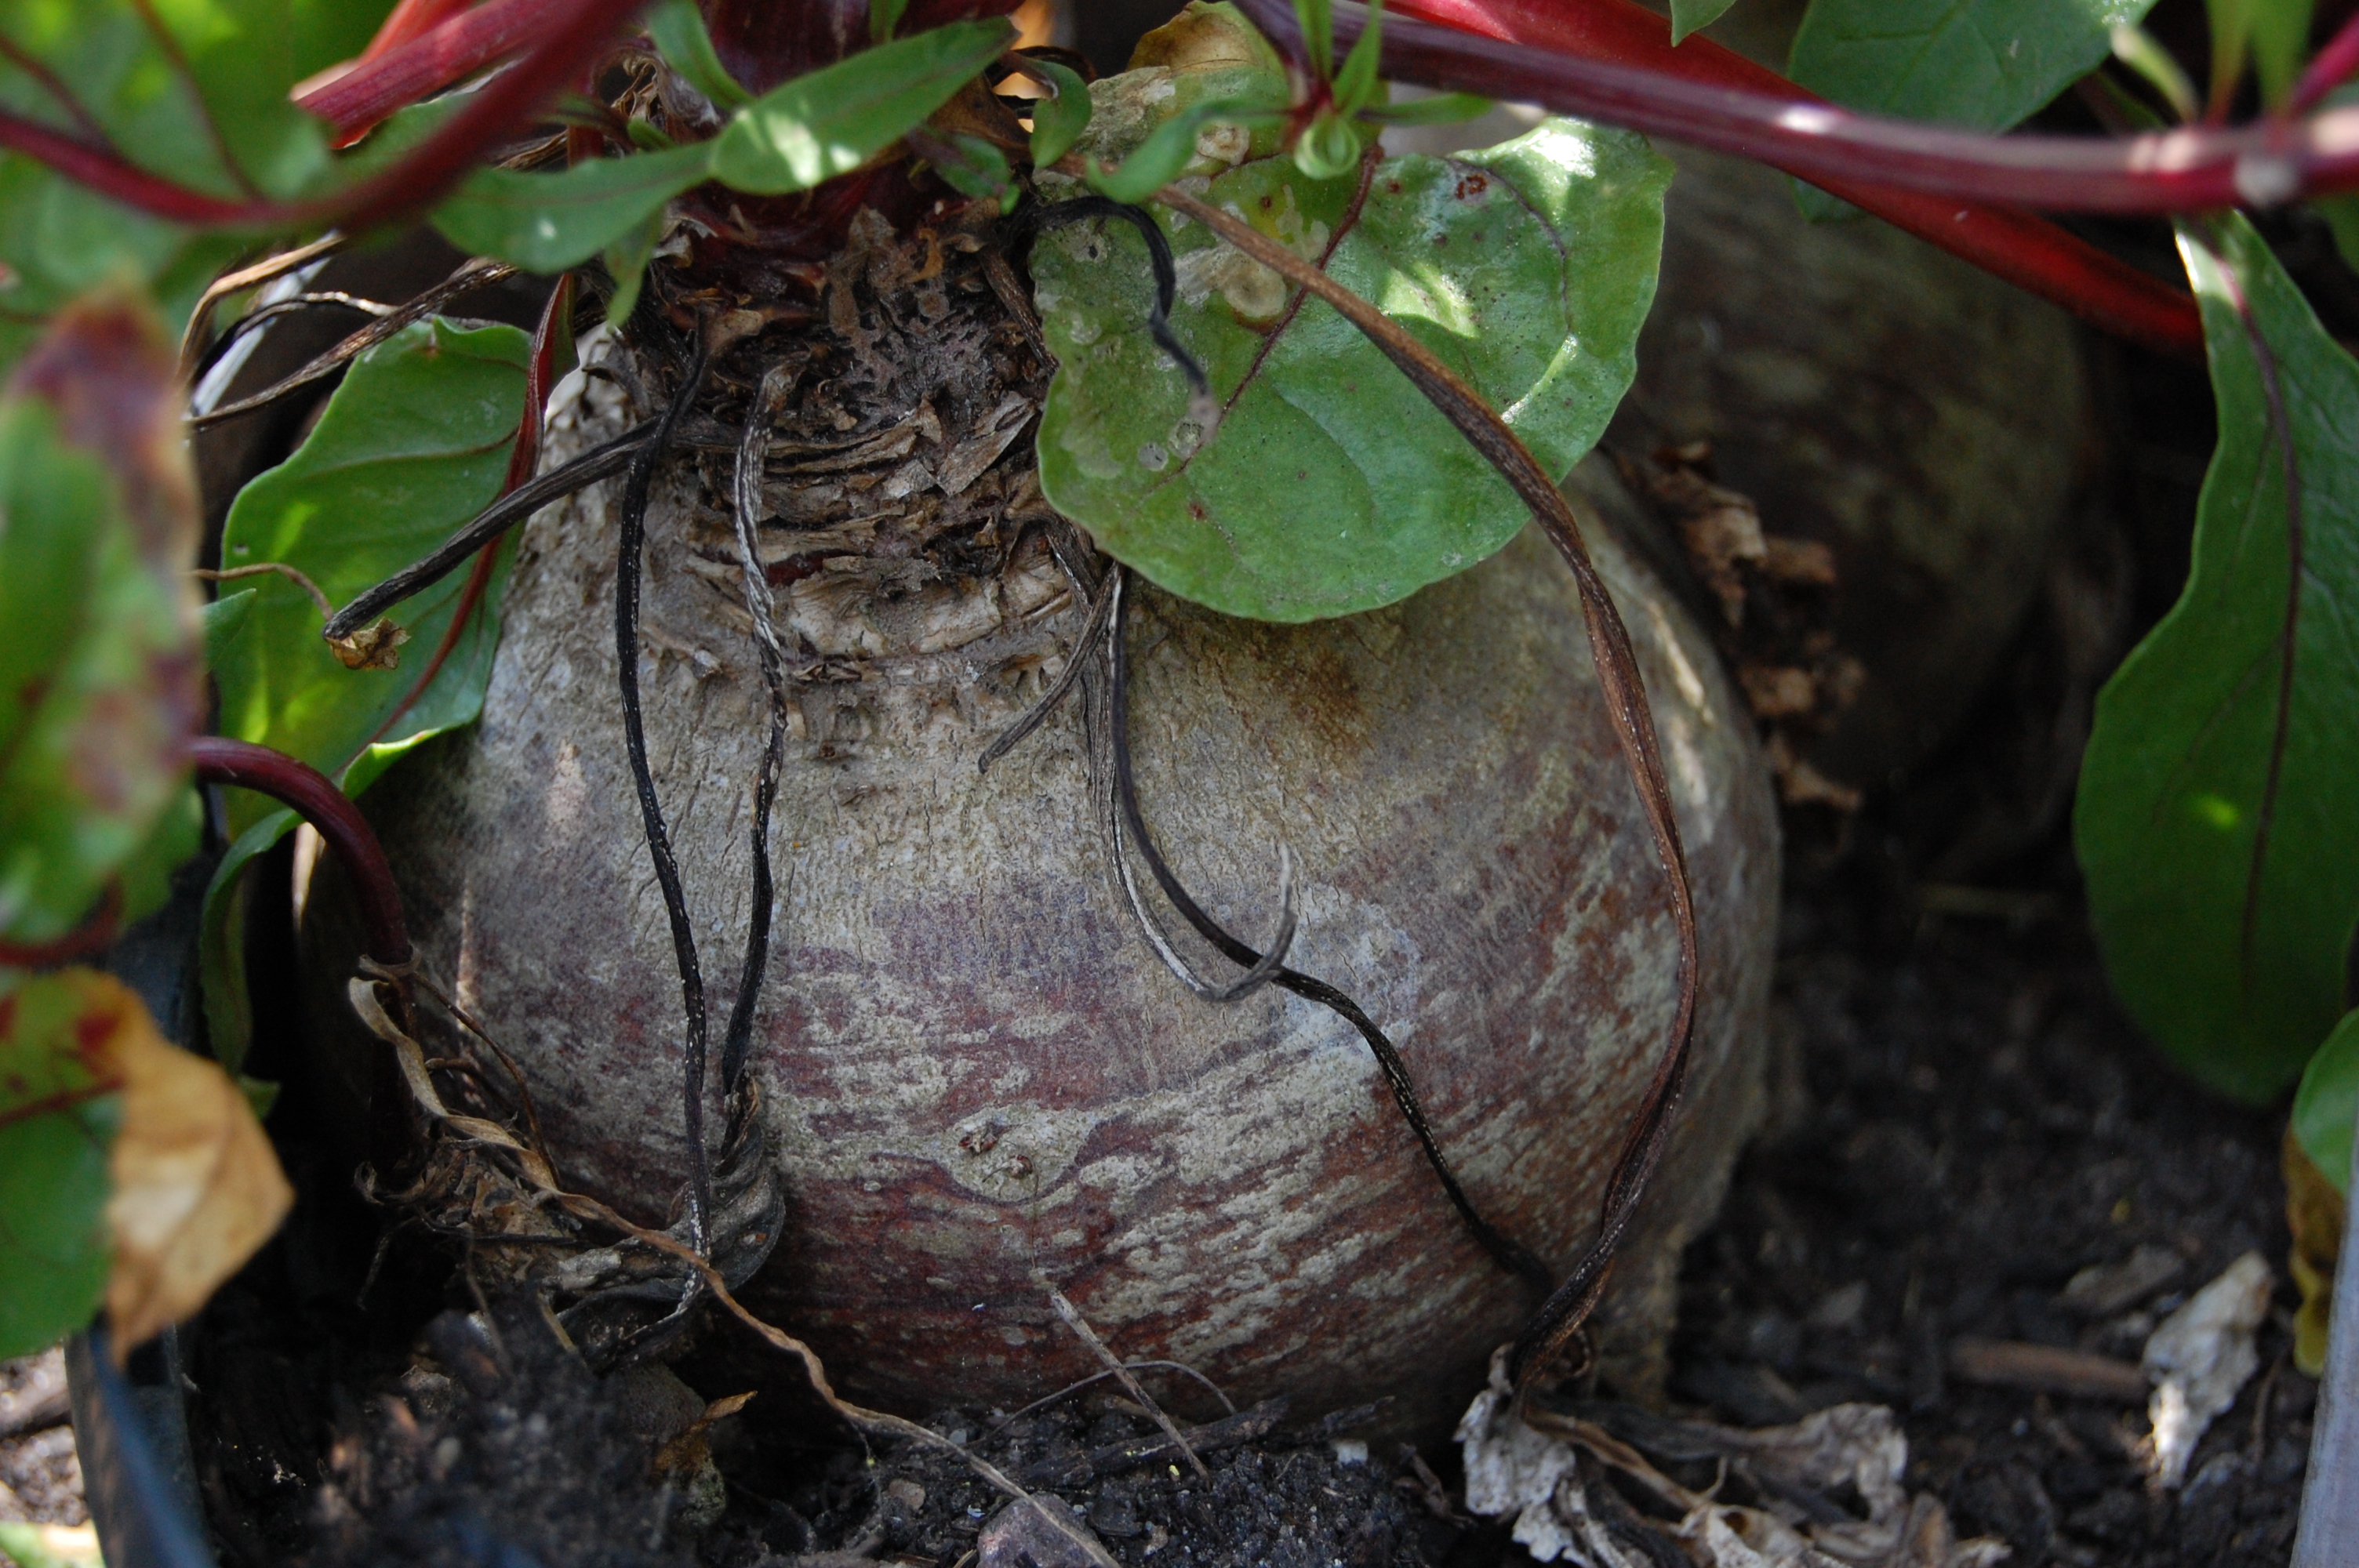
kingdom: Plantae
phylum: Tracheophyta
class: Magnoliopsida
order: Caryophyllales
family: Amaranthaceae
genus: Beta
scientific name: Beta vulgaris
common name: Beet
